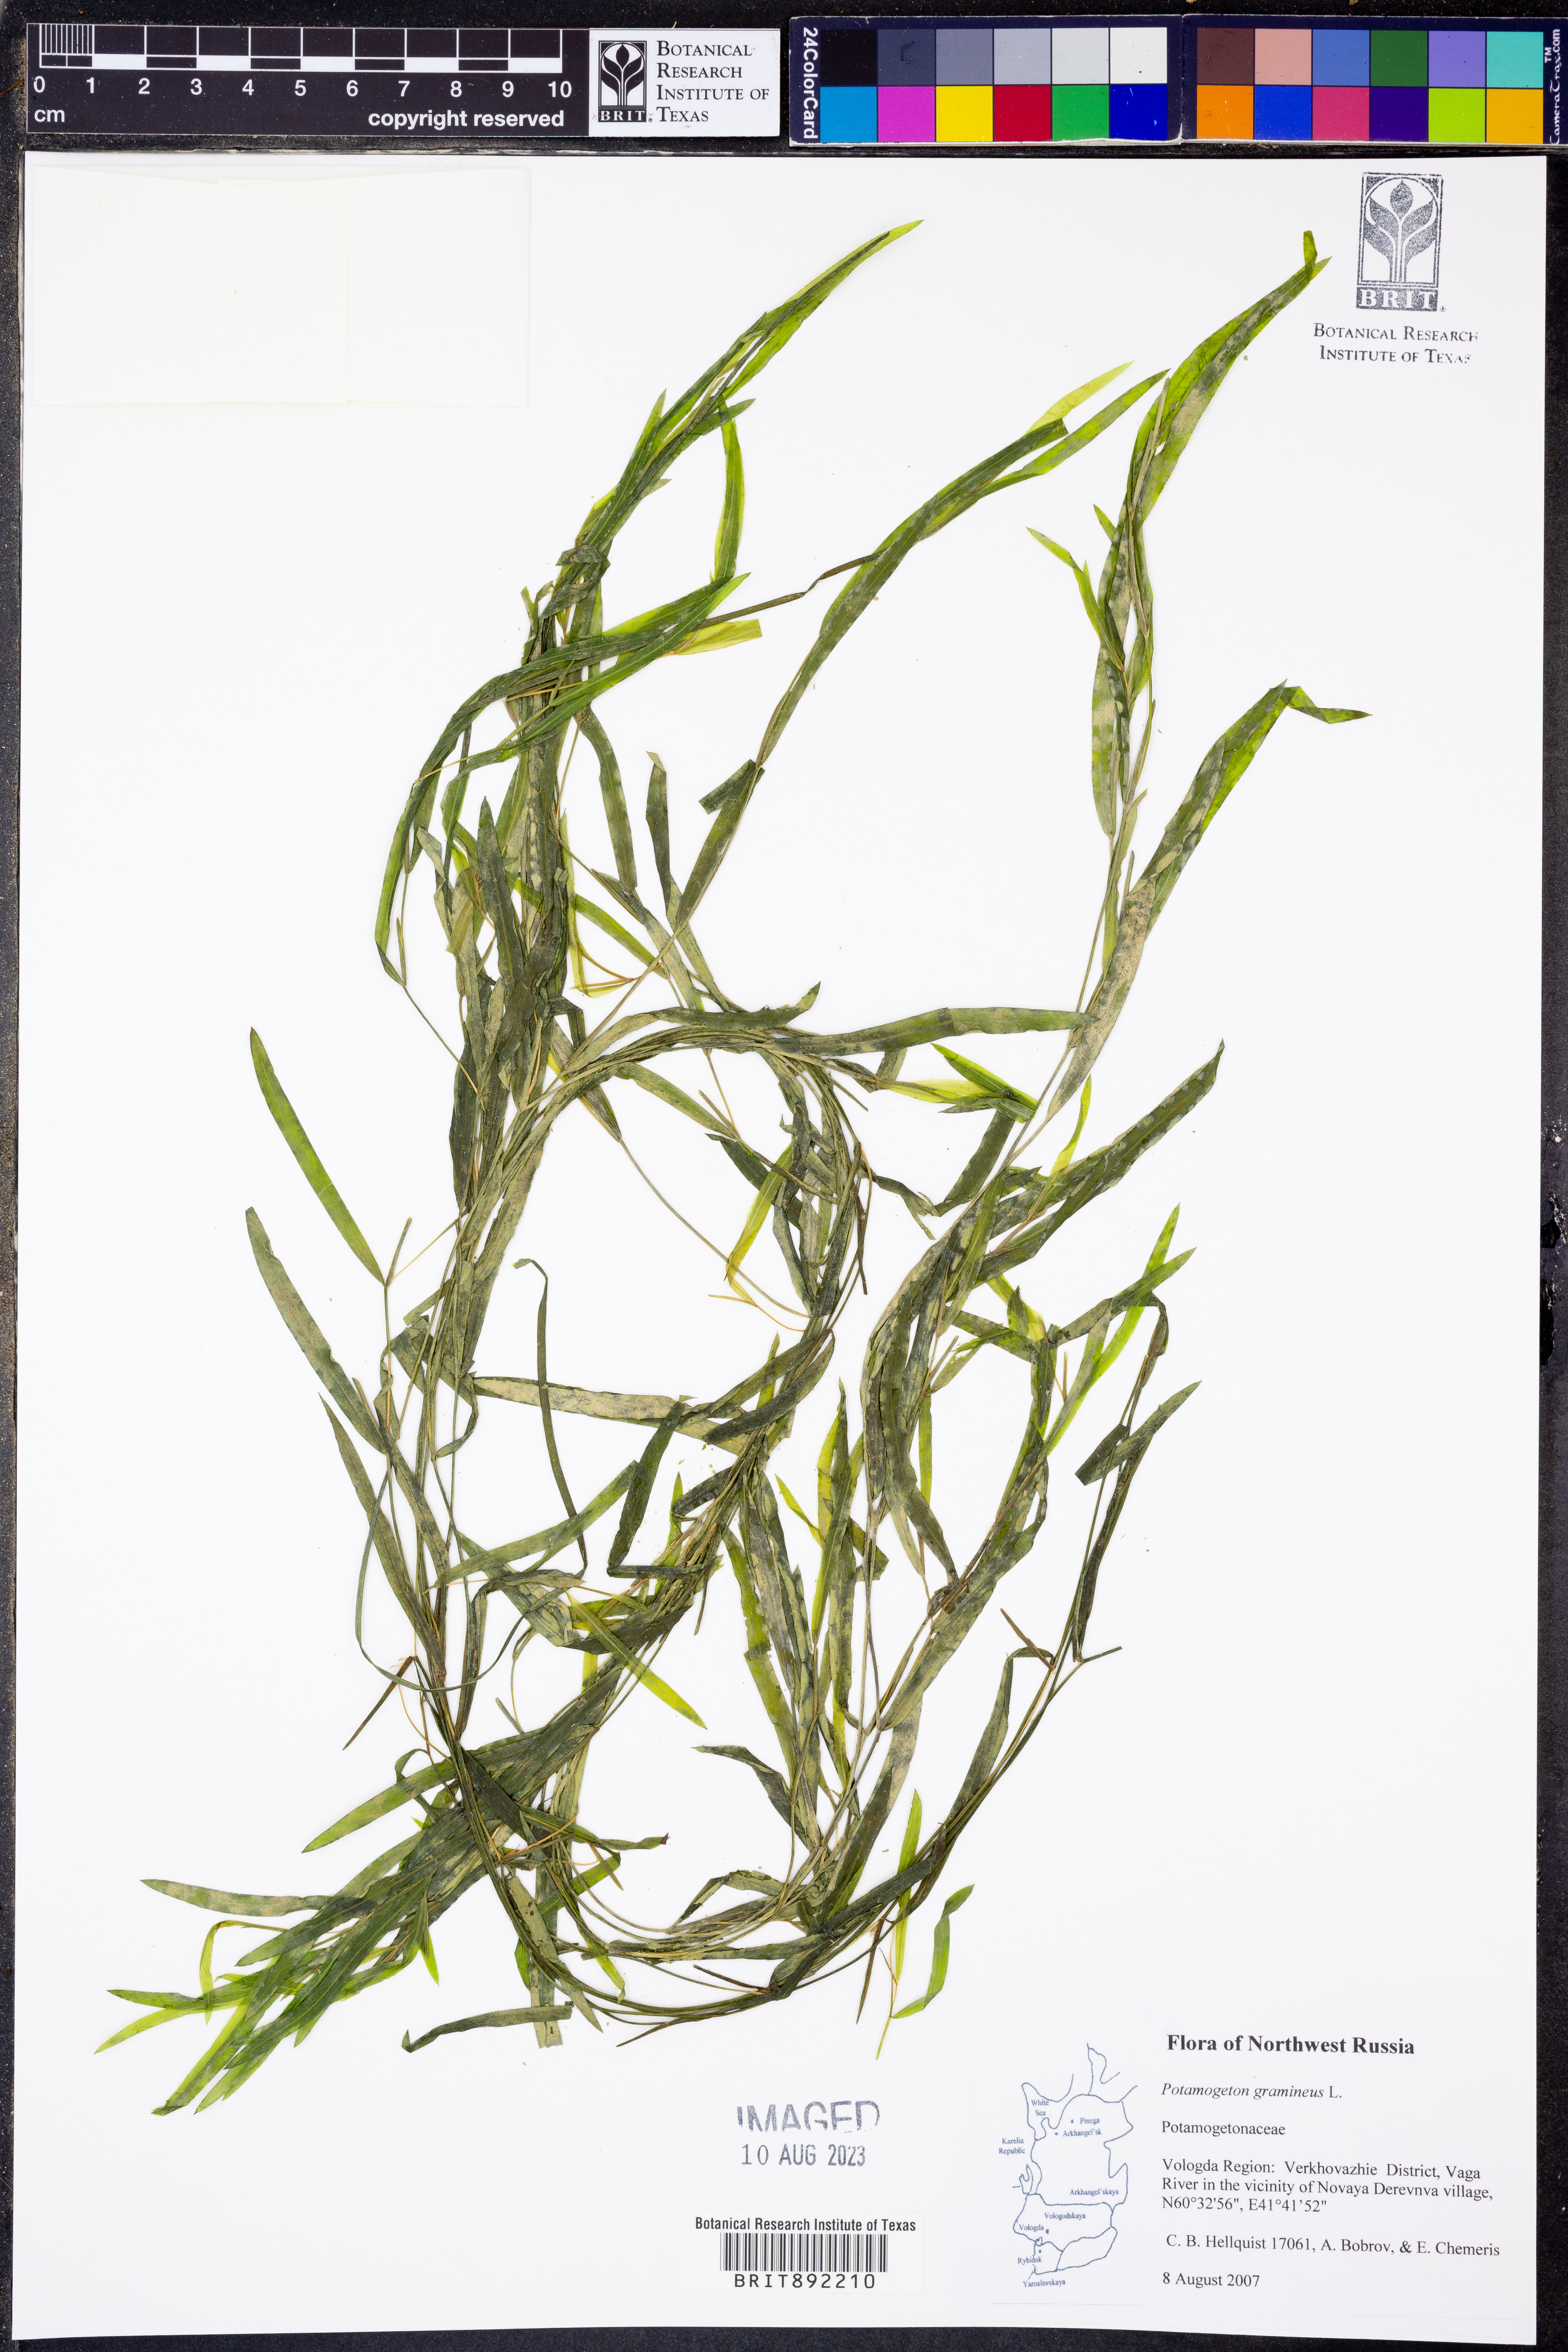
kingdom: Plantae
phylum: Tracheophyta
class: Liliopsida
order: Alismatales
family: Potamogetonaceae
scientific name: Potamogetonaceae
